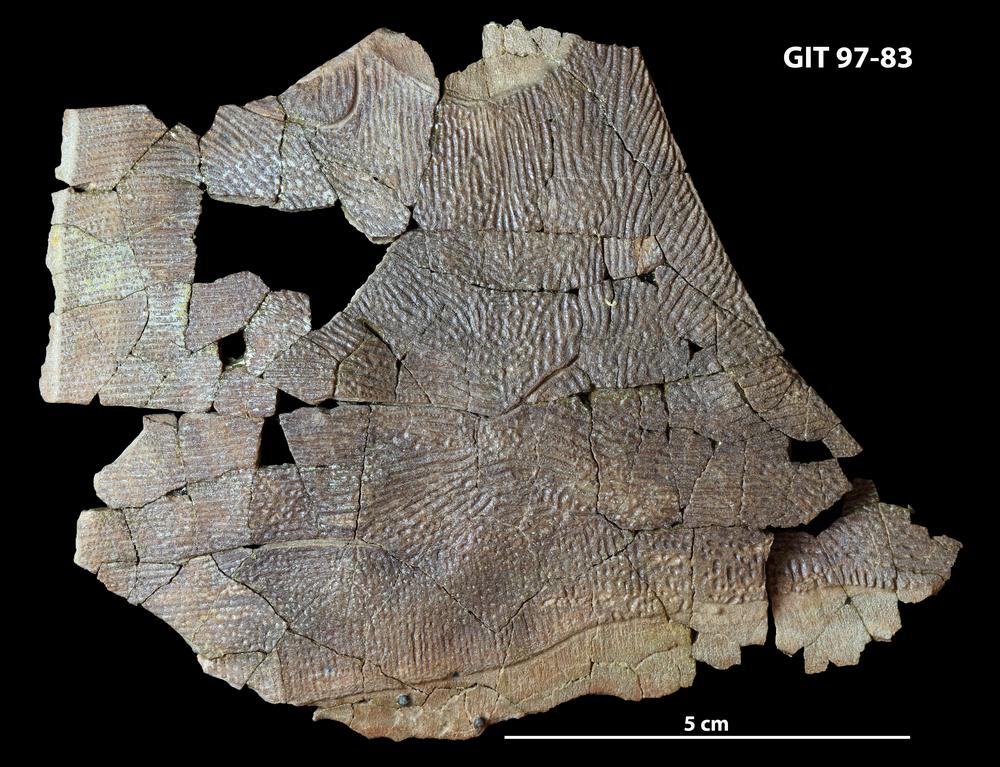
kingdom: Animalia
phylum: Chordata
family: Holonematidae
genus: Holonema
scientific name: Holonema
